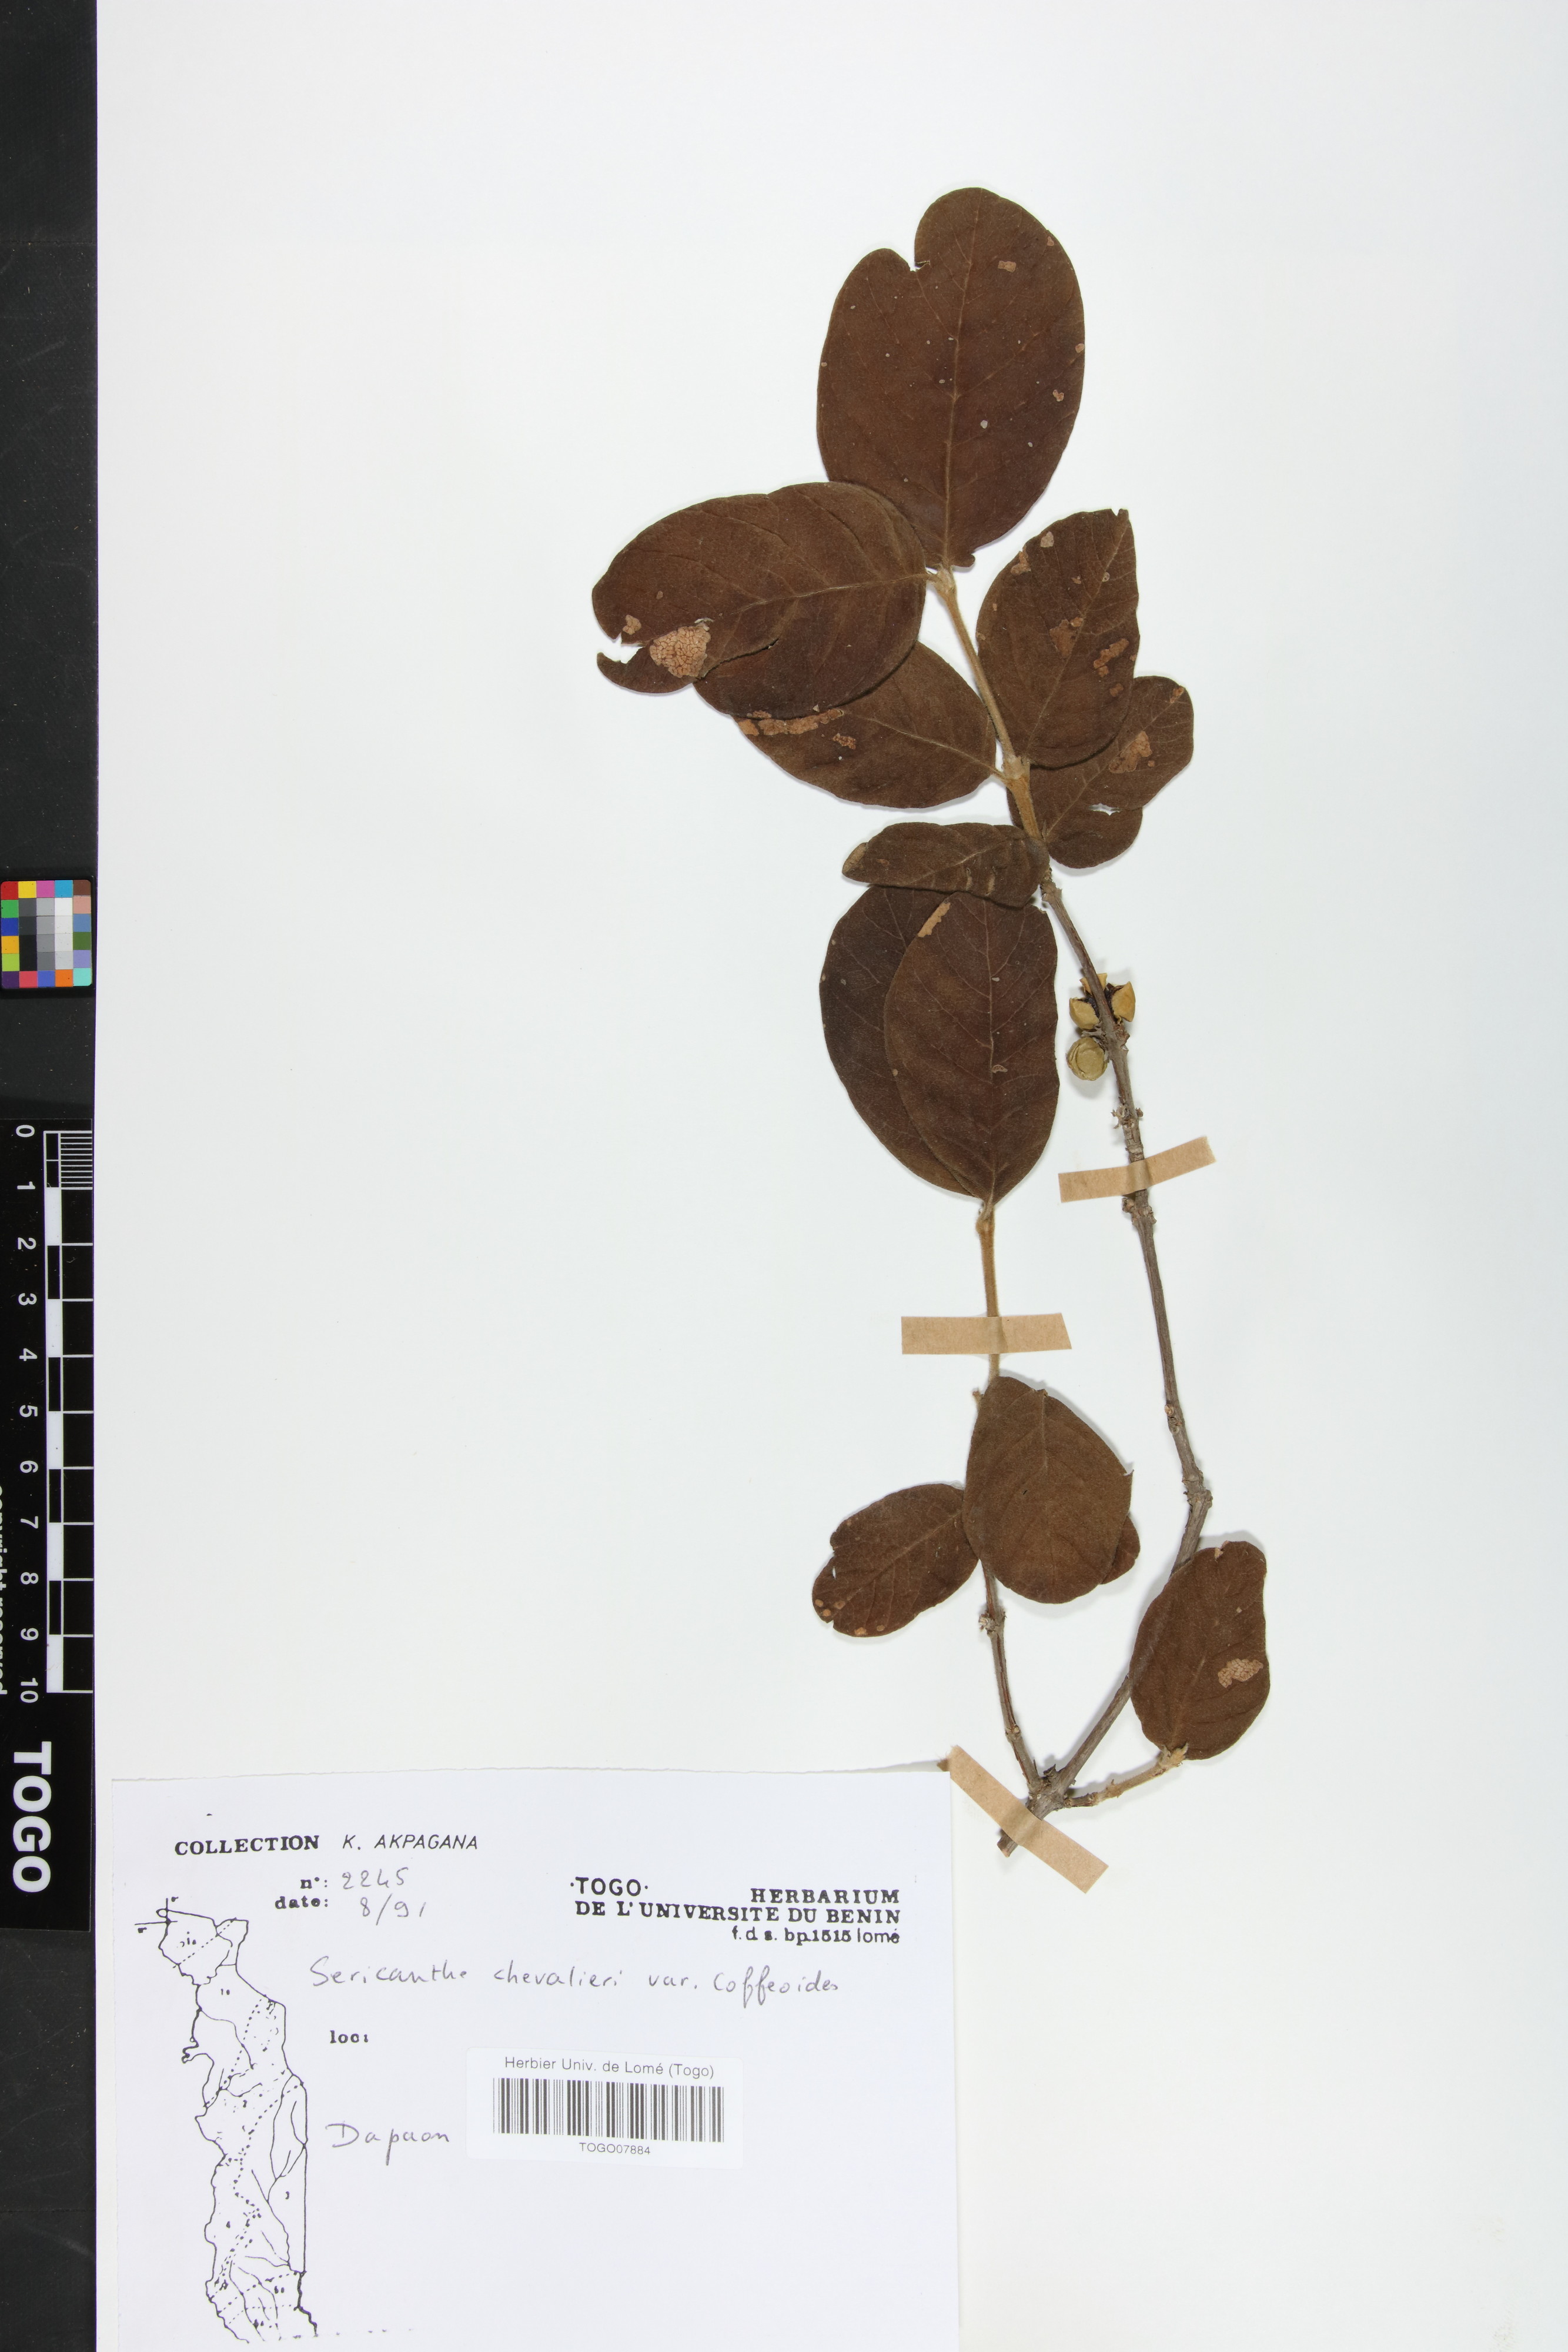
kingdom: Plantae
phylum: Tracheophyta
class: Magnoliopsida
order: Gentianales
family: Rubiaceae
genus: Sericanthe
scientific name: Sericanthe chevalieri
